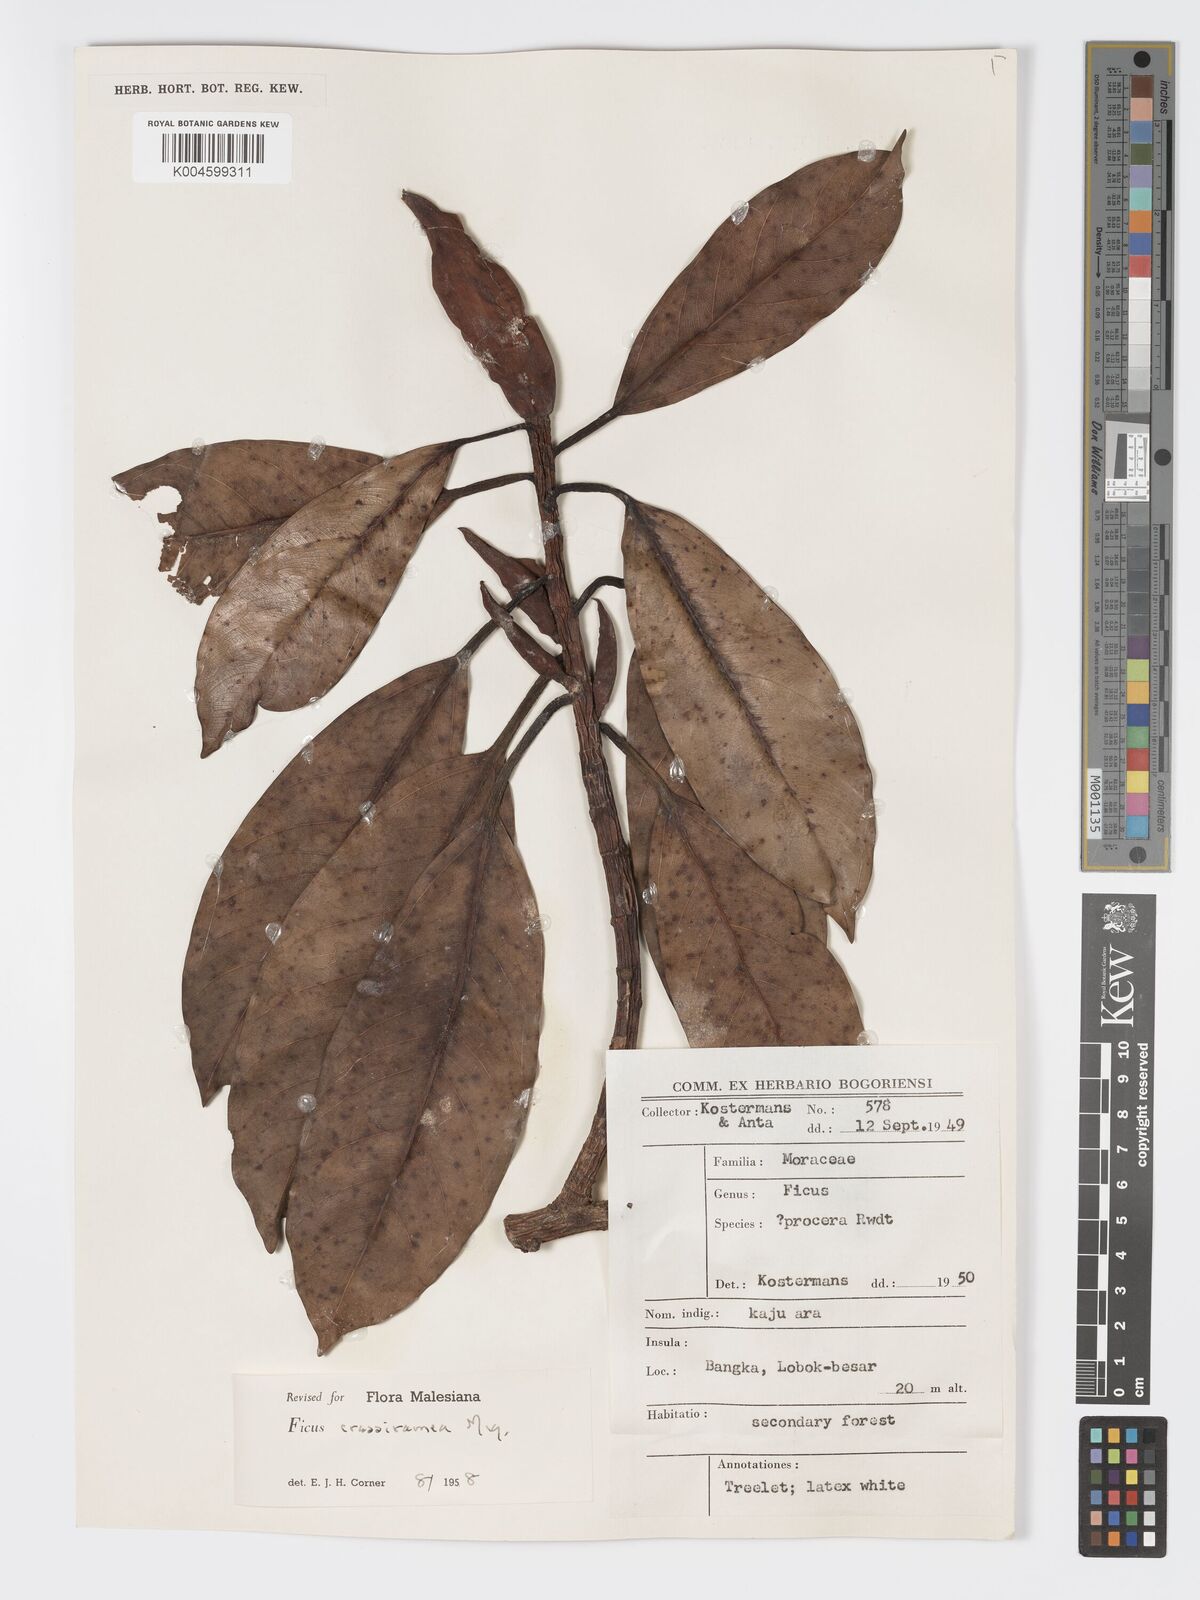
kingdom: Plantae
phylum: Tracheophyta
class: Magnoliopsida
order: Rosales
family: Moraceae
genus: Ficus
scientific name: Ficus crassiramea
